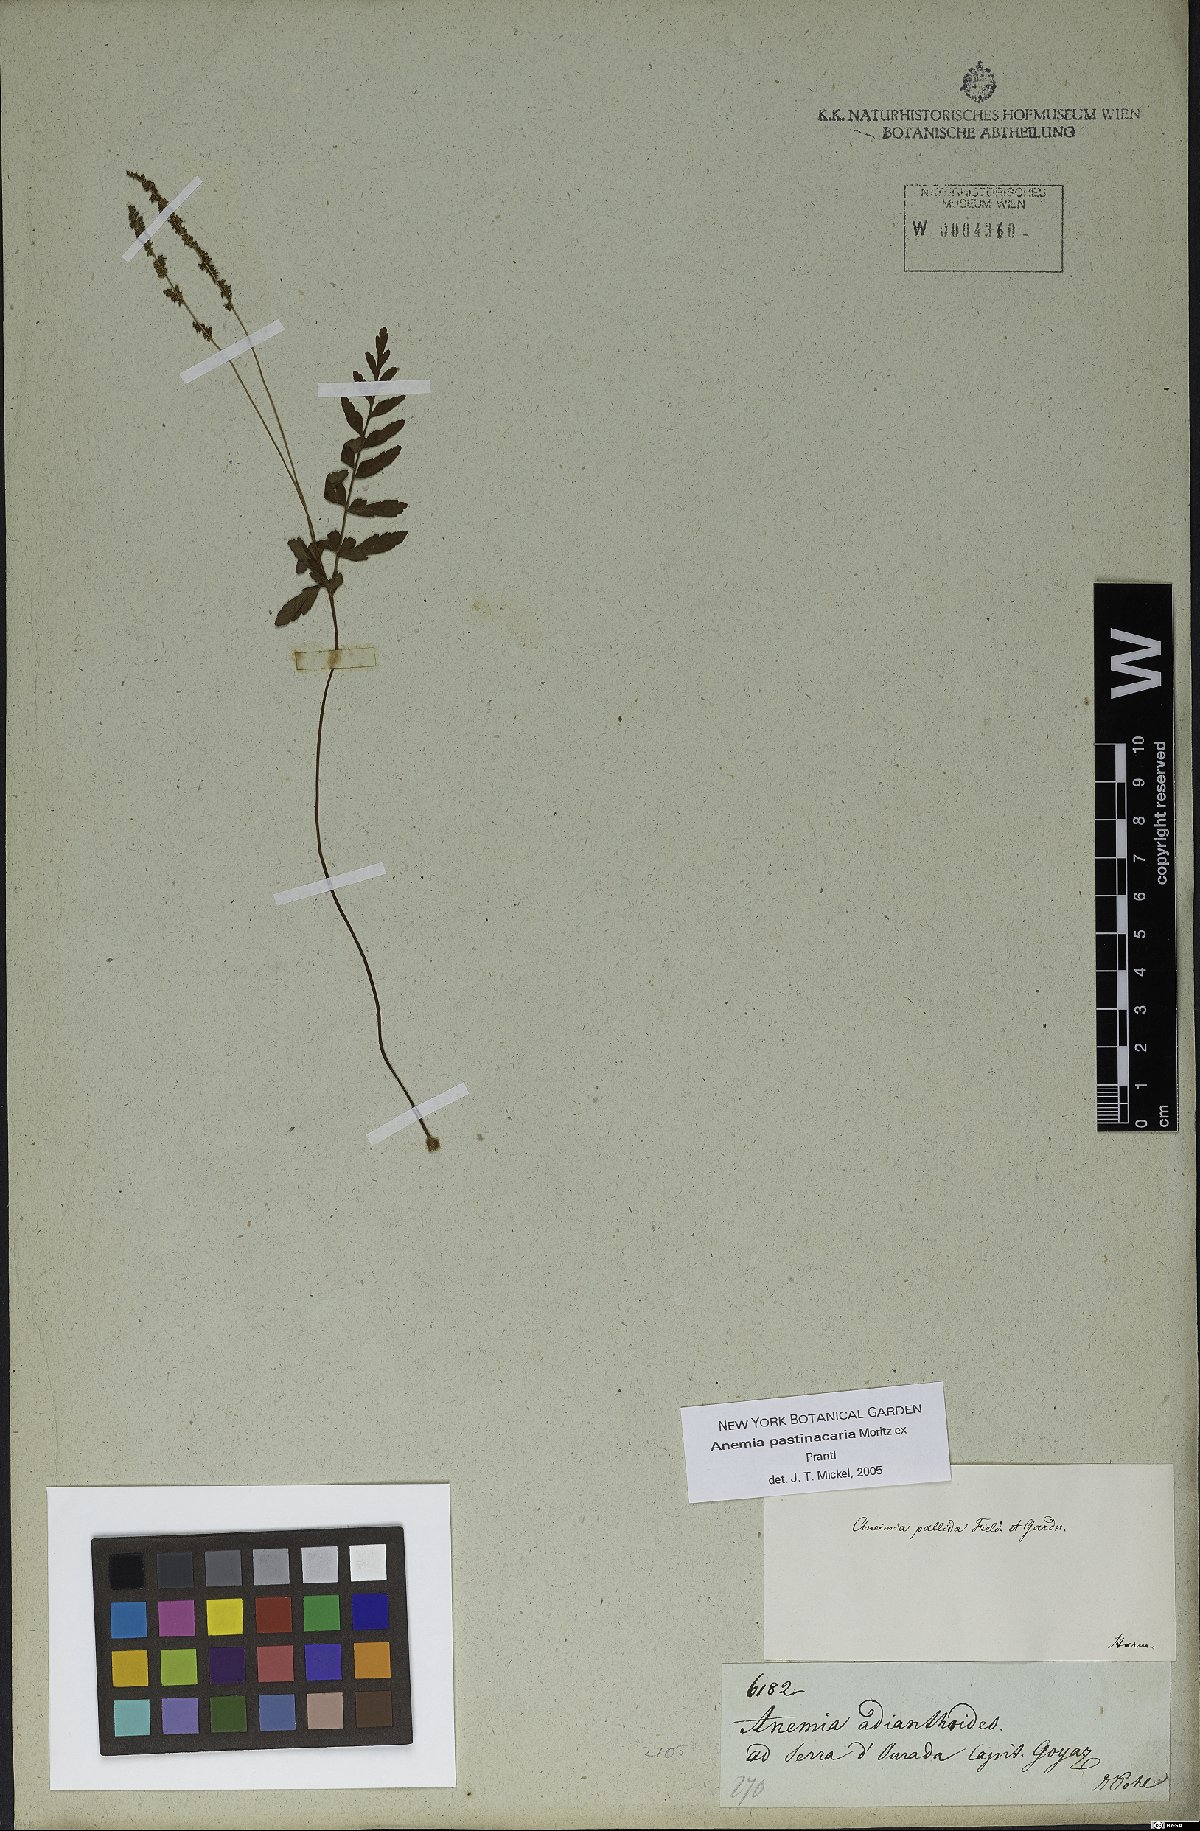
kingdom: Plantae
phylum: Tracheophyta
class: Polypodiopsida
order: Schizaeales
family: Anemiaceae
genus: Anemia
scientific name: Anemia hispida
